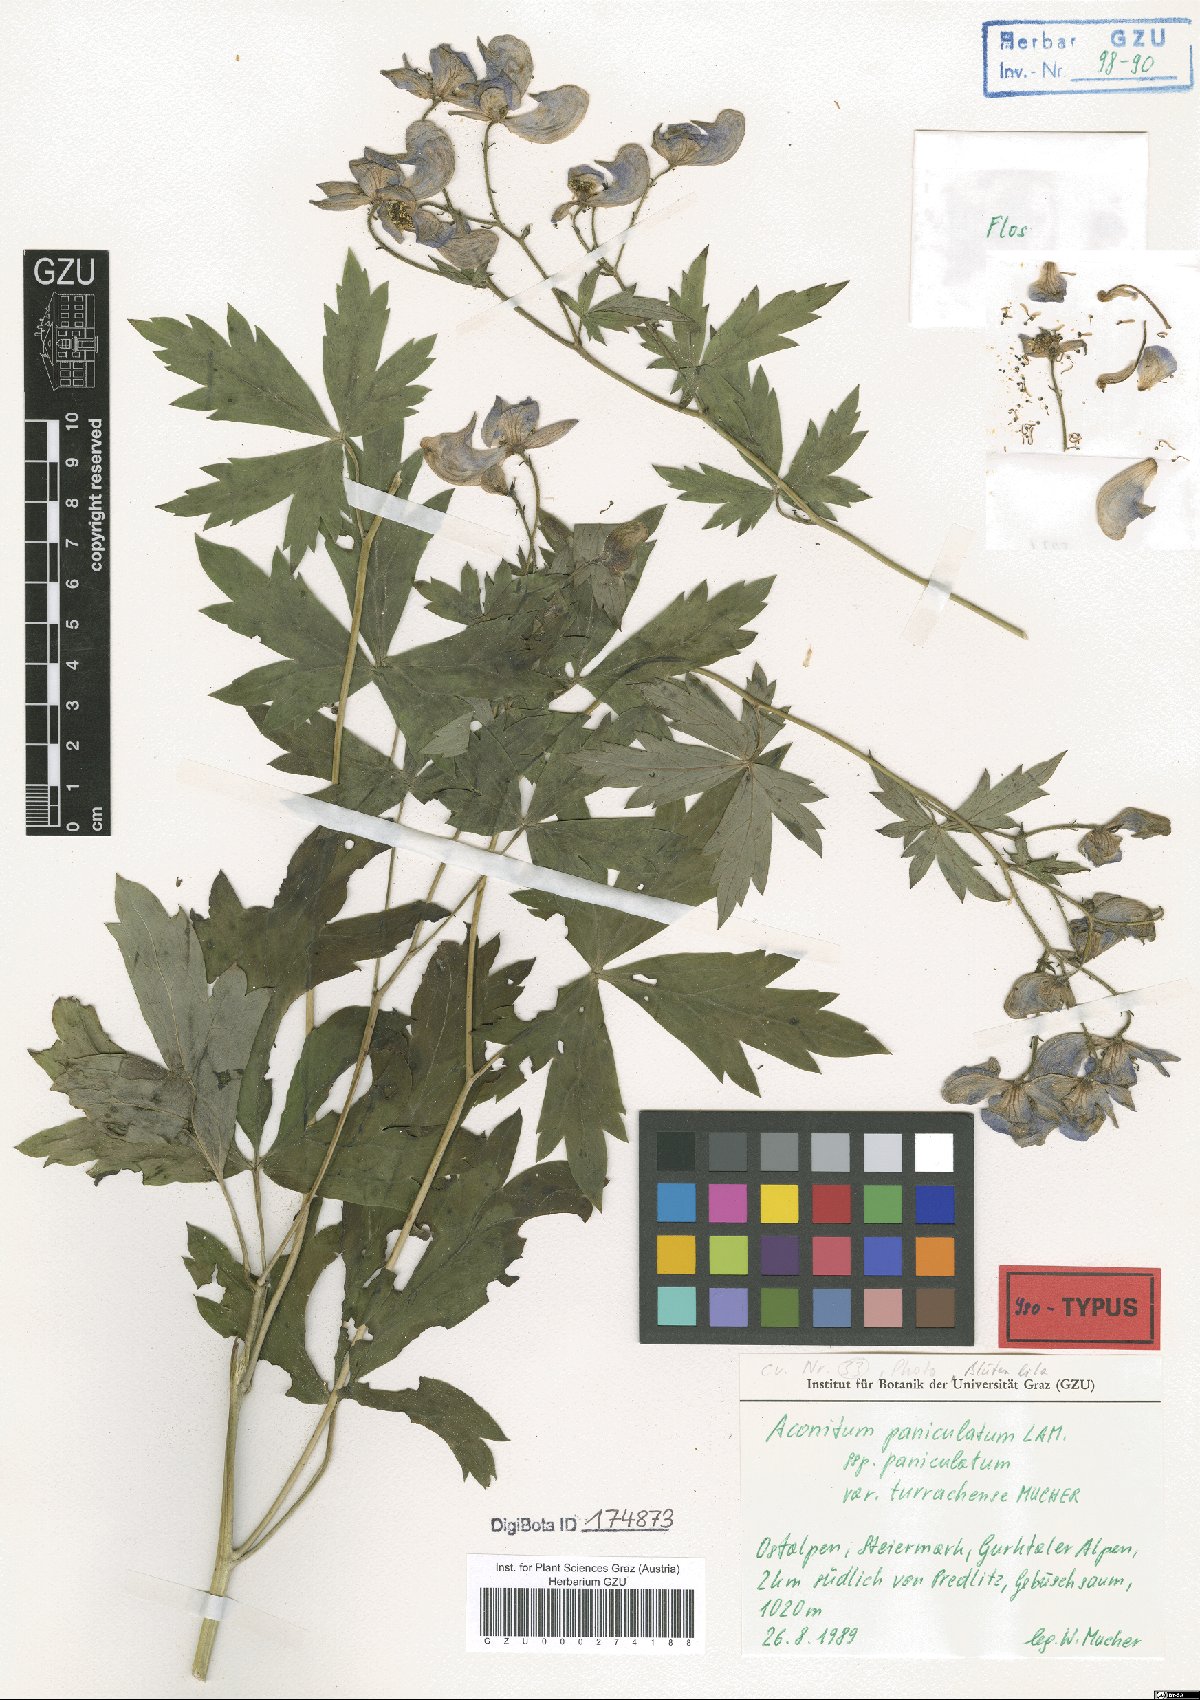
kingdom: Plantae
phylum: Tracheophyta
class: Magnoliopsida
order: Ranunculales
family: Ranunculaceae
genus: Aconitum
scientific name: Aconitum degenii
